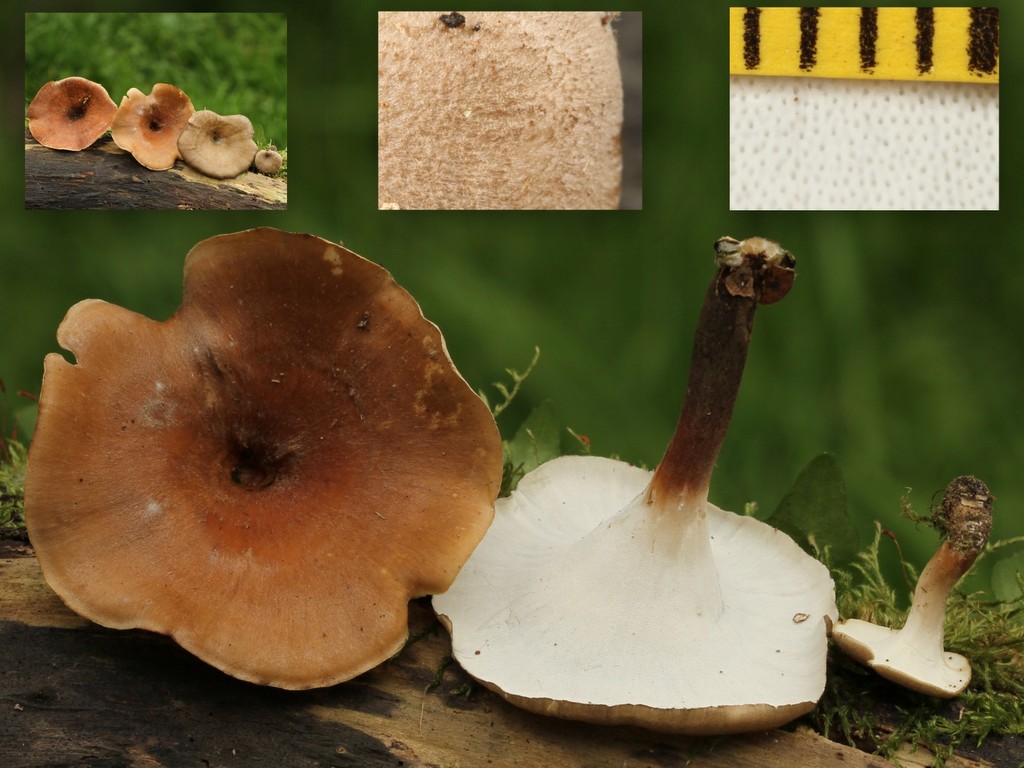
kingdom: Fungi
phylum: Basidiomycota
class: Agaricomycetes
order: Polyporales
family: Polyporaceae
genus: Picipes
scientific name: Picipes tubaeformis
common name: trompet-stilkporesvamp
